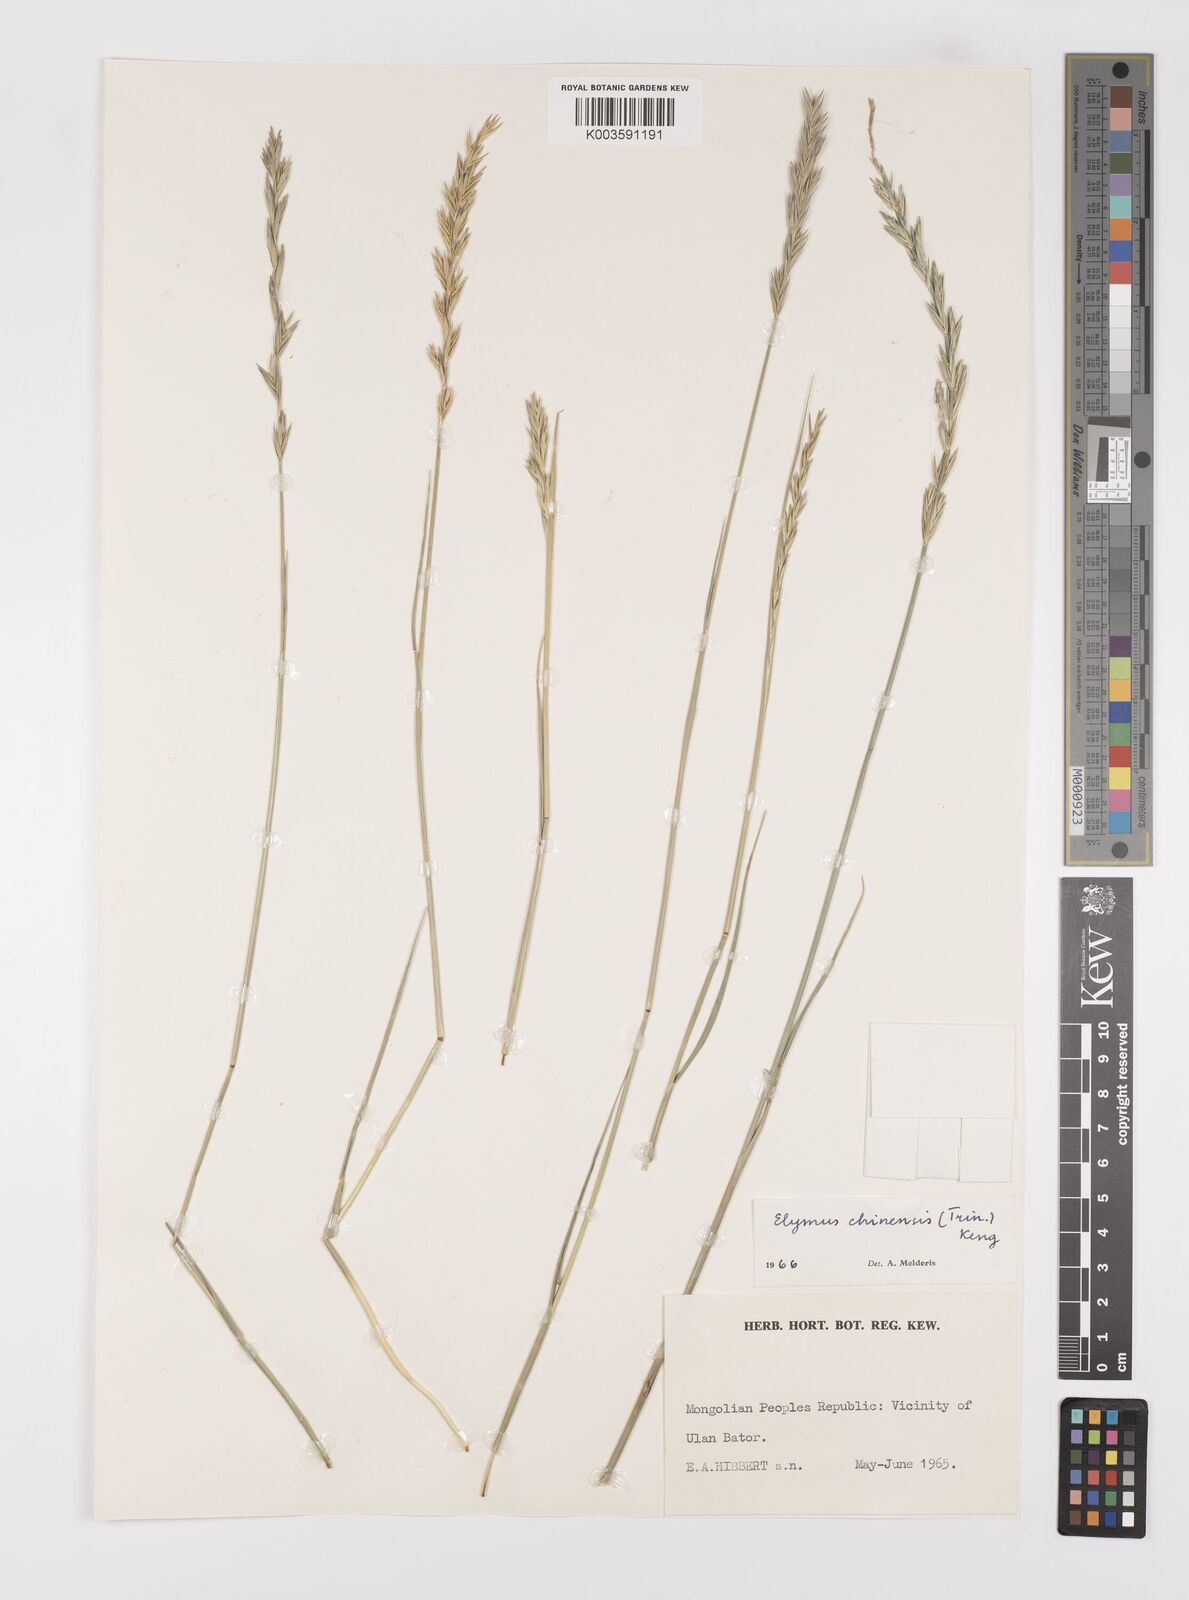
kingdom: Plantae
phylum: Tracheophyta
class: Liliopsida
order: Poales
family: Poaceae
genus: Leymus
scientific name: Leymus chinensis
